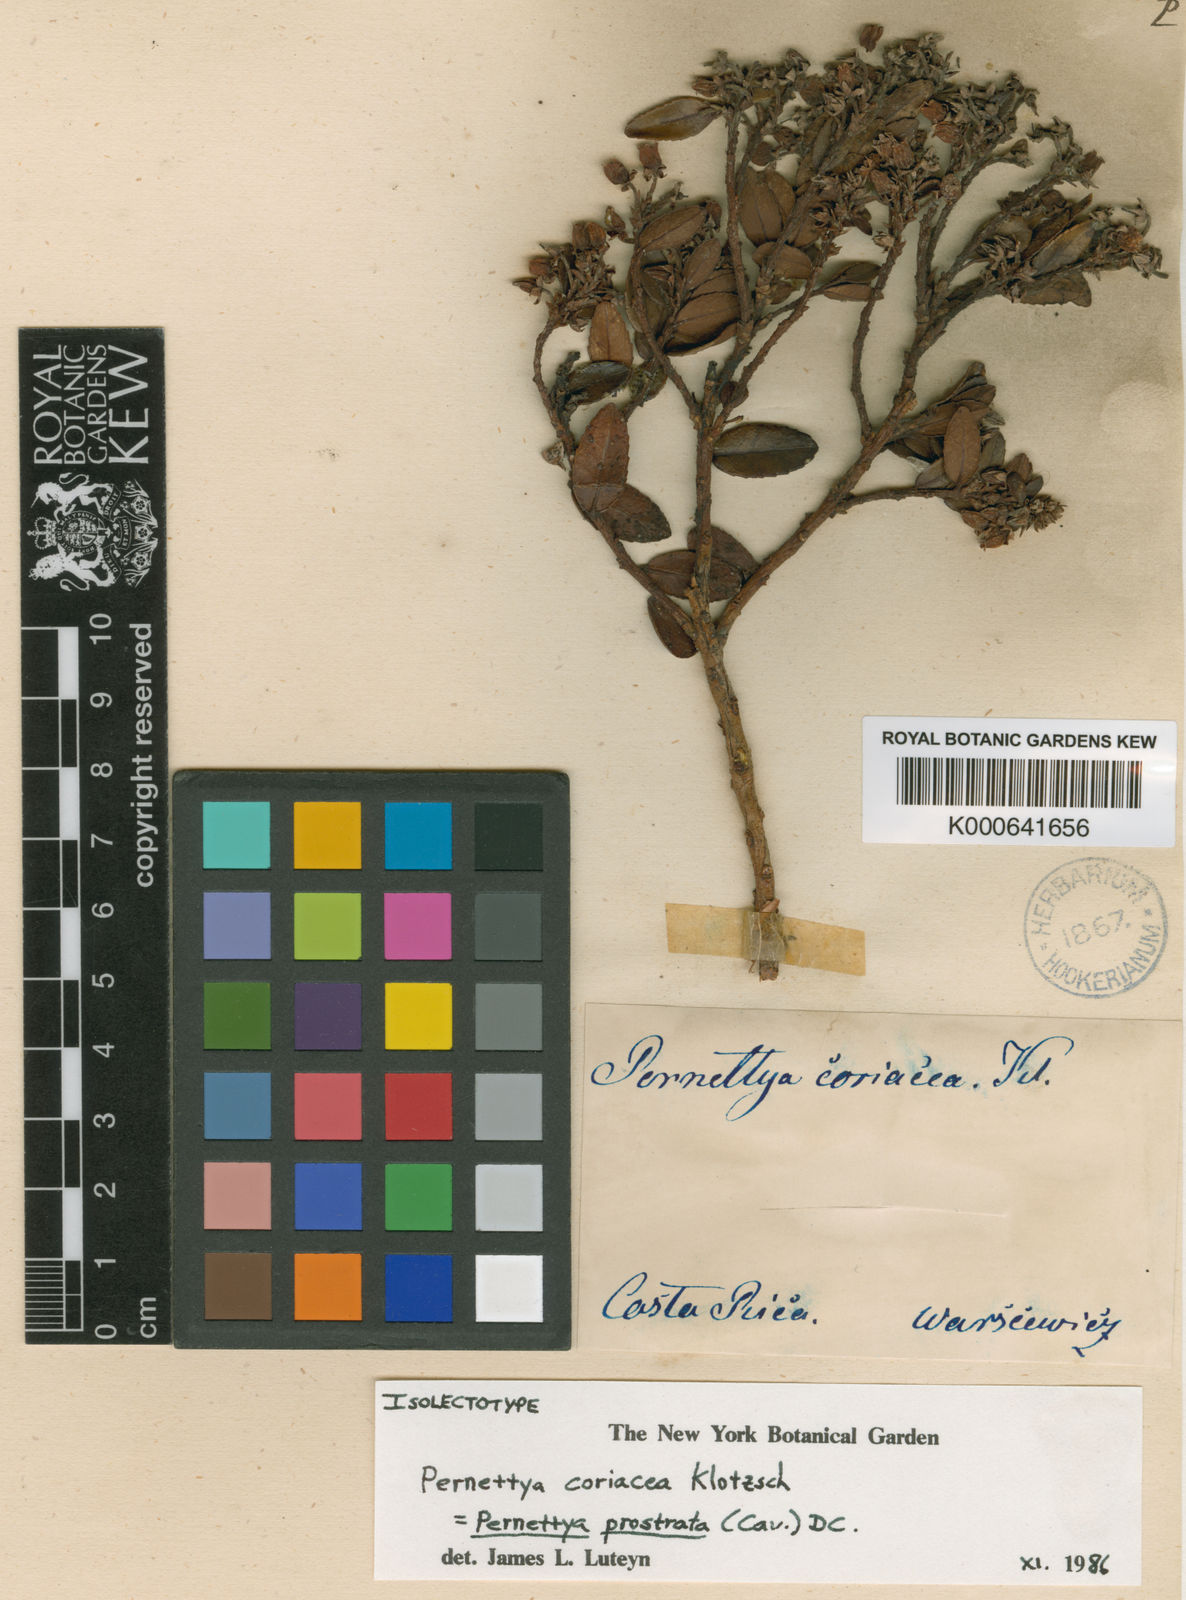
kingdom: Plantae
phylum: Tracheophyta
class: Magnoliopsida
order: Ericales
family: Ericaceae
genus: Gaultheria
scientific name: Gaultheria myrsinoides
